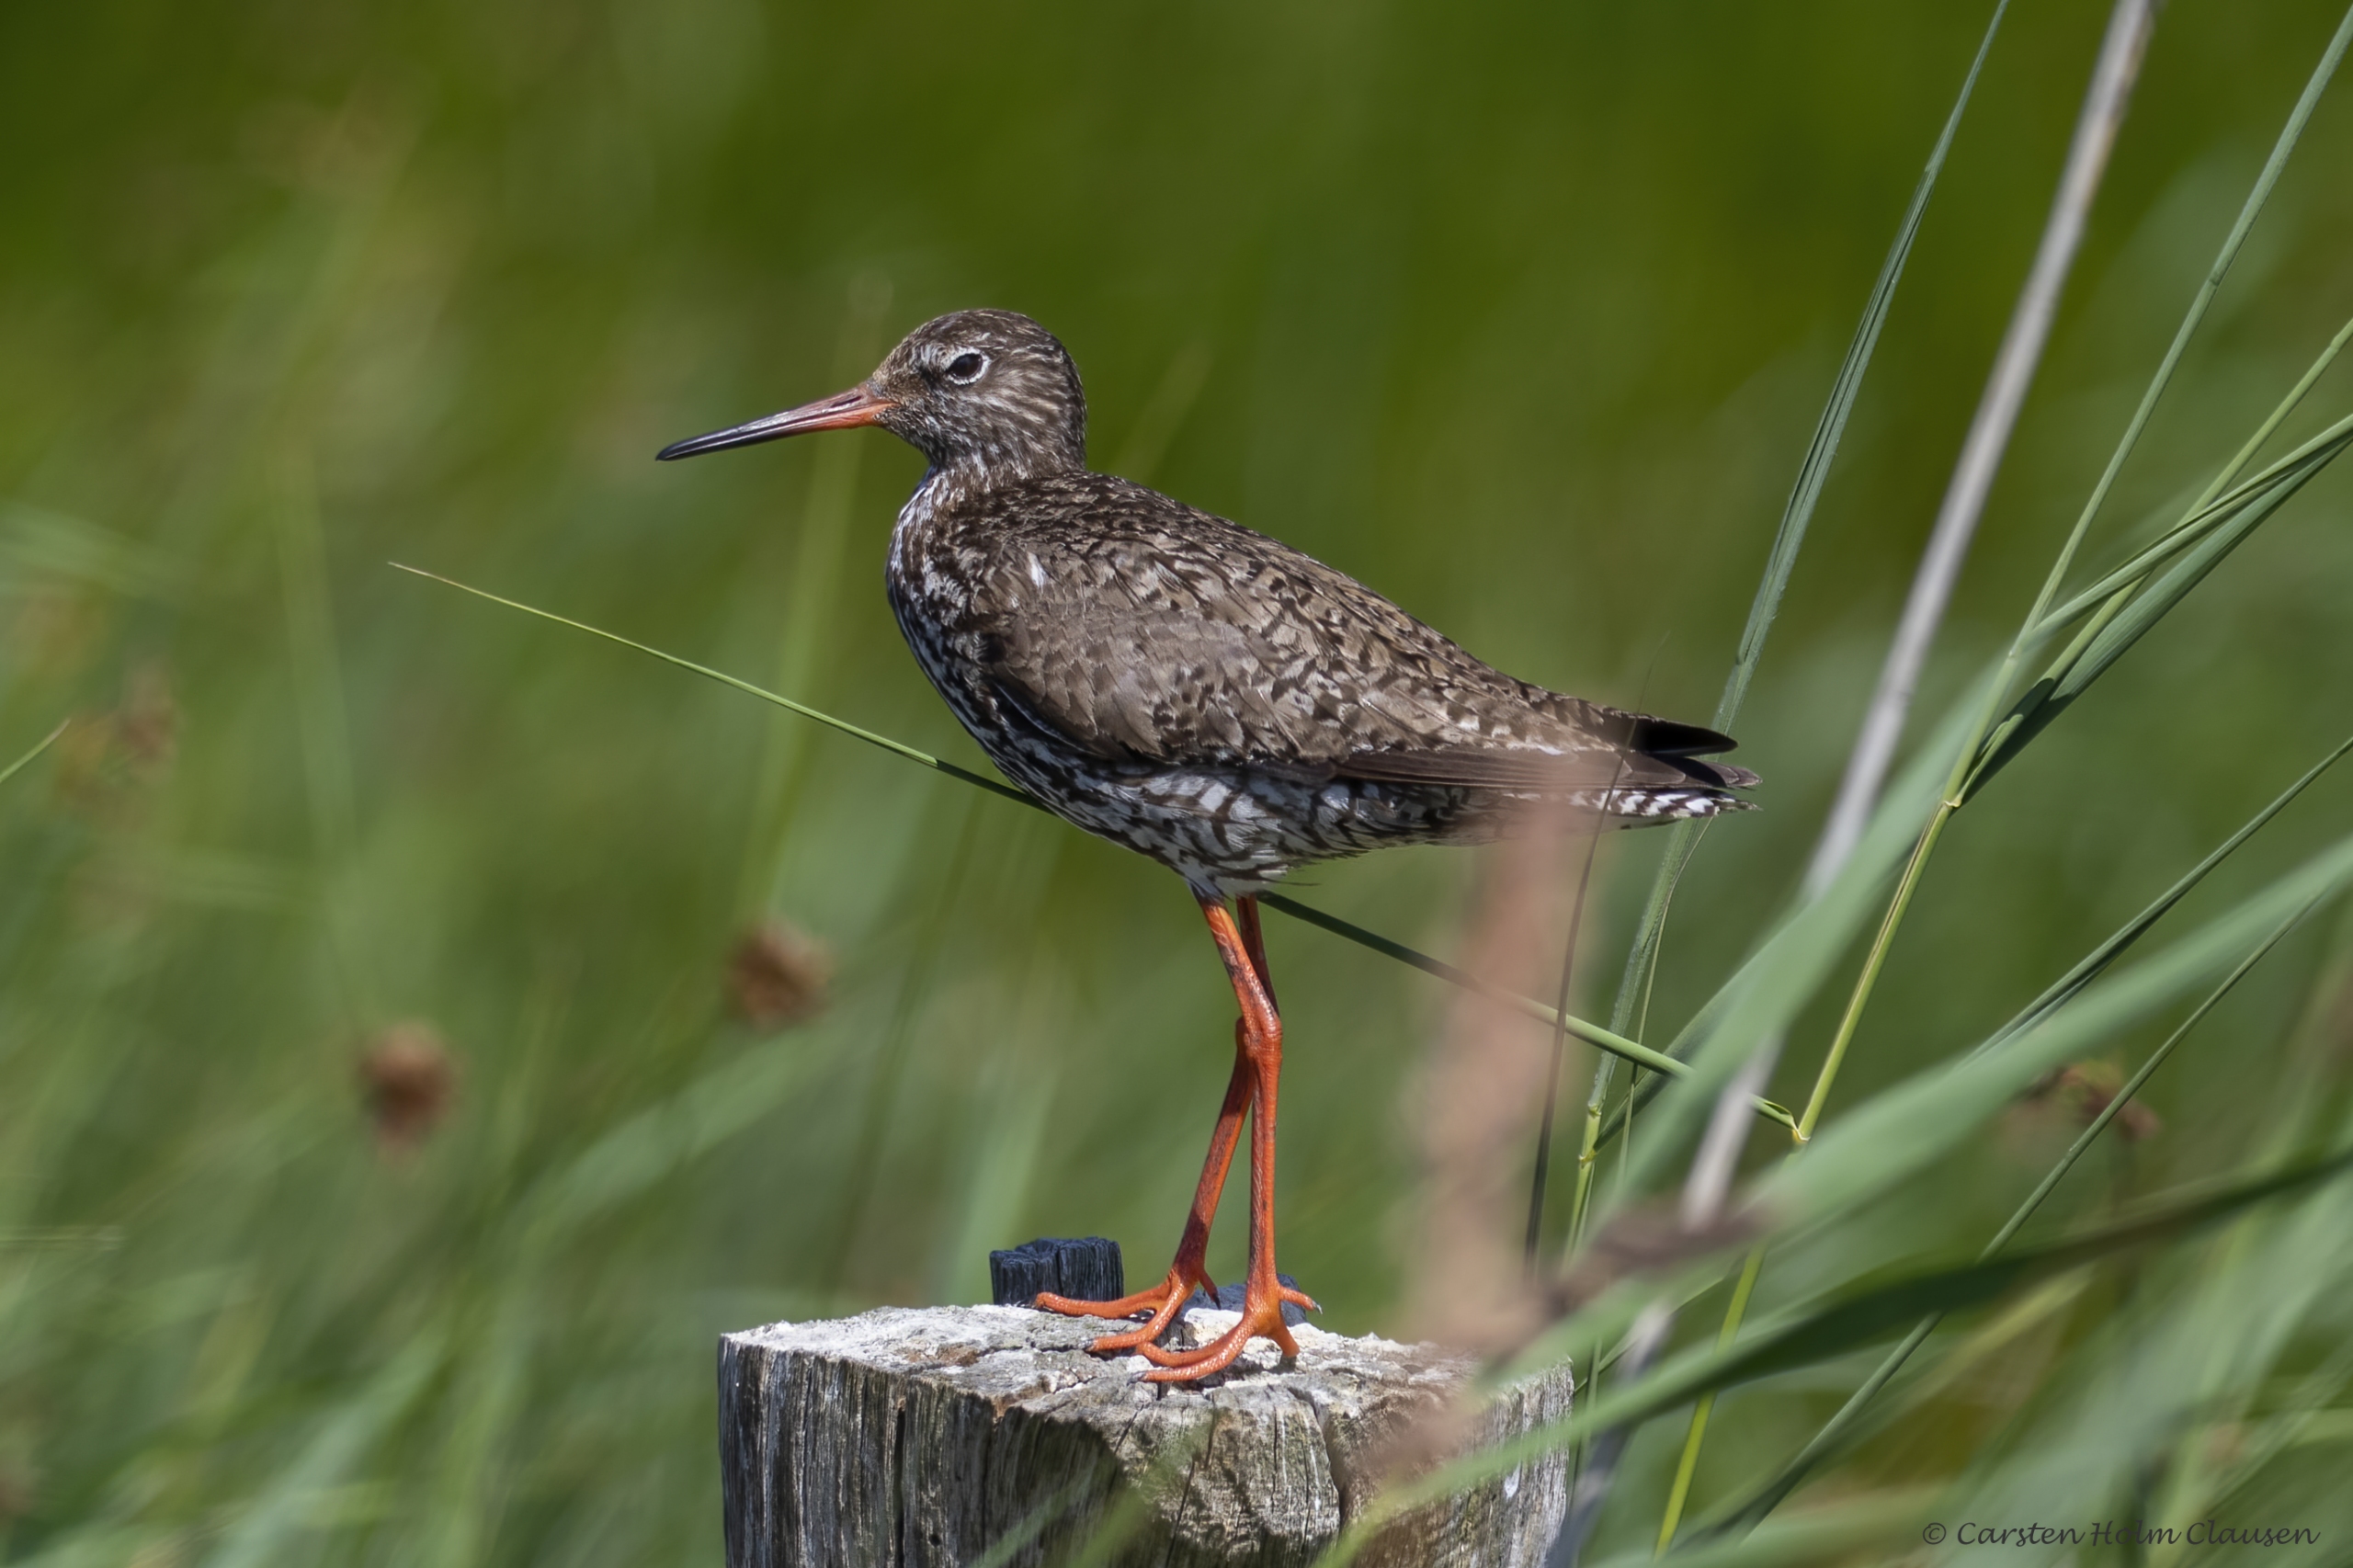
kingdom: Animalia
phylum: Chordata
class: Aves
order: Charadriiformes
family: Scolopacidae
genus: Tringa
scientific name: Tringa totanus
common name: Rødben
